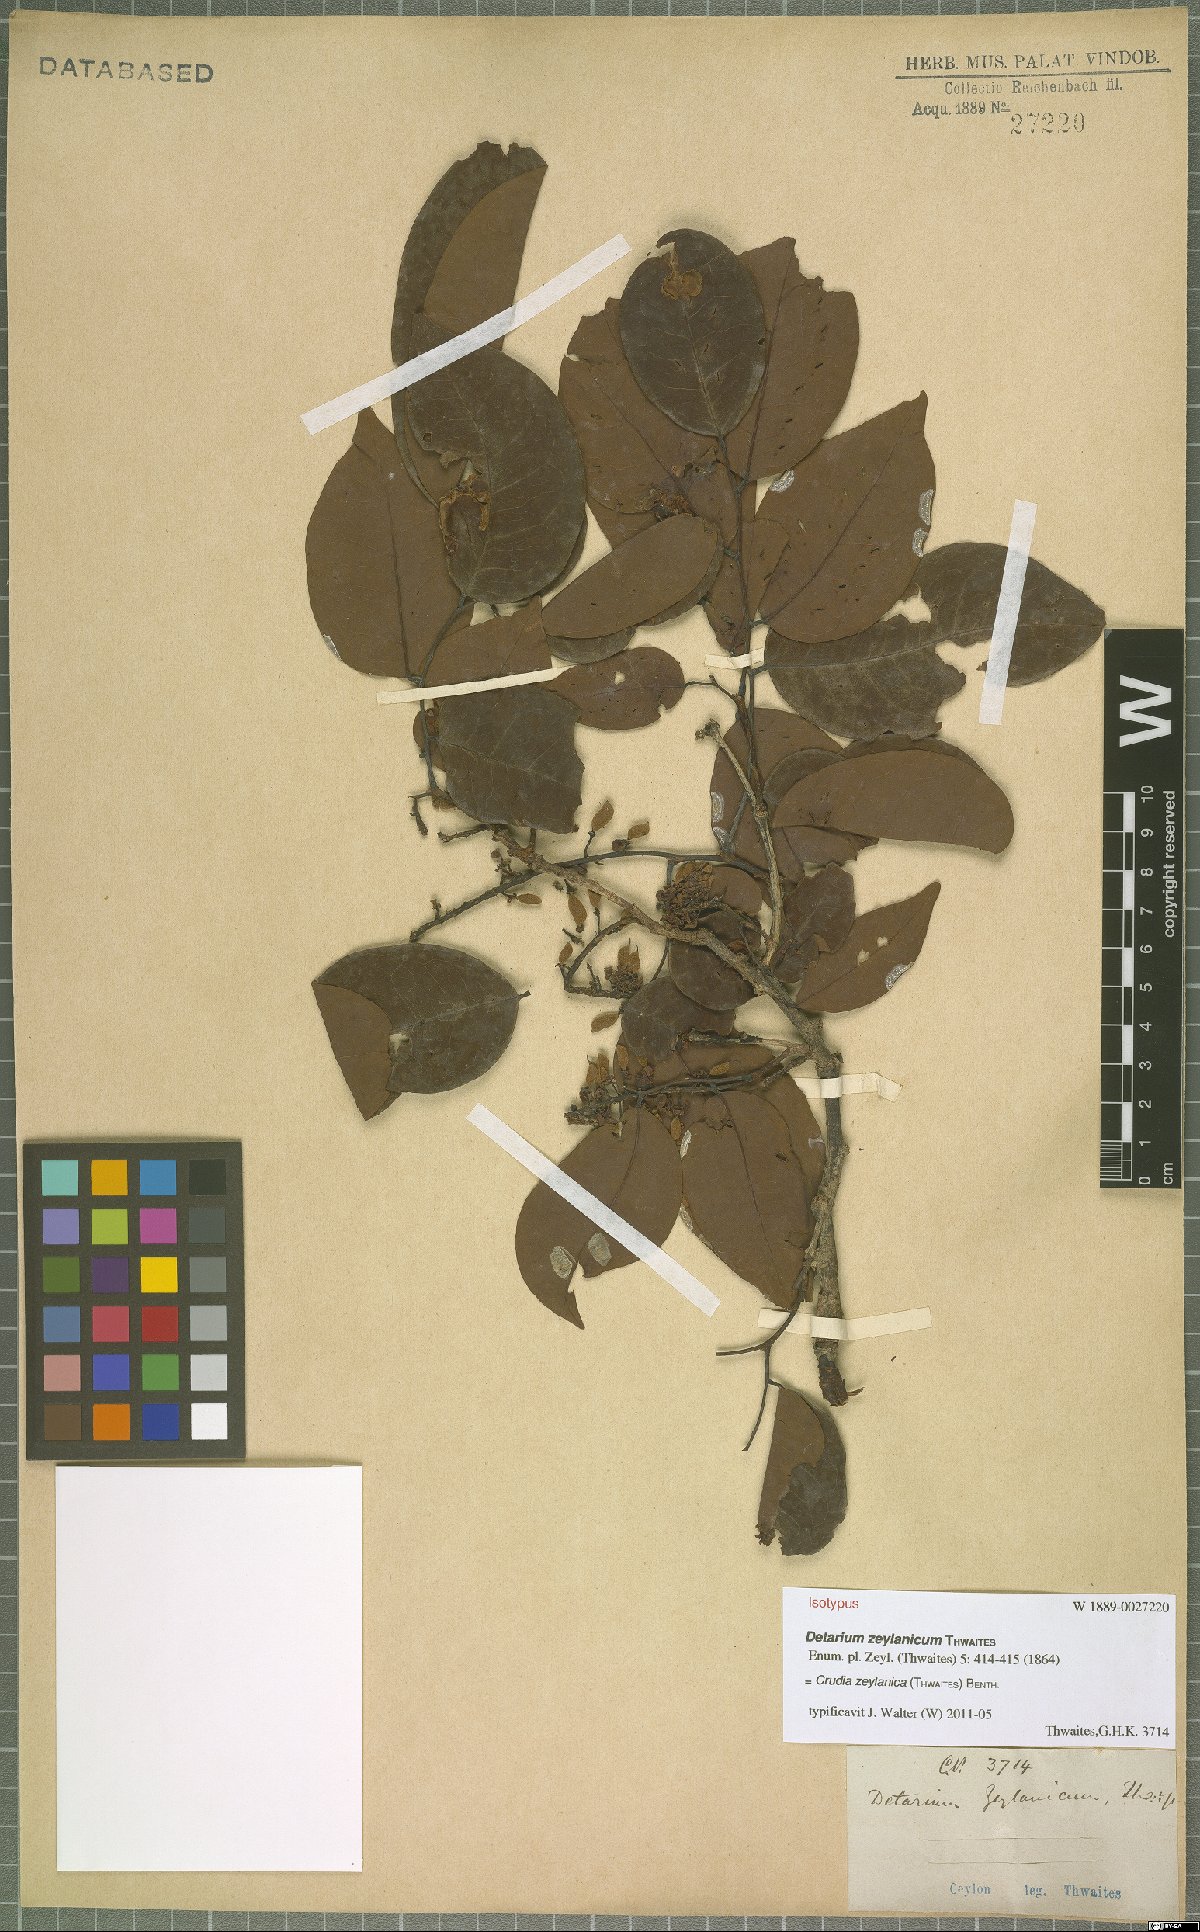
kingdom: Plantae
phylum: Tracheophyta
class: Magnoliopsida
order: Fabales
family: Fabaceae
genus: Crudia
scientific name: Crudia zeylanica
